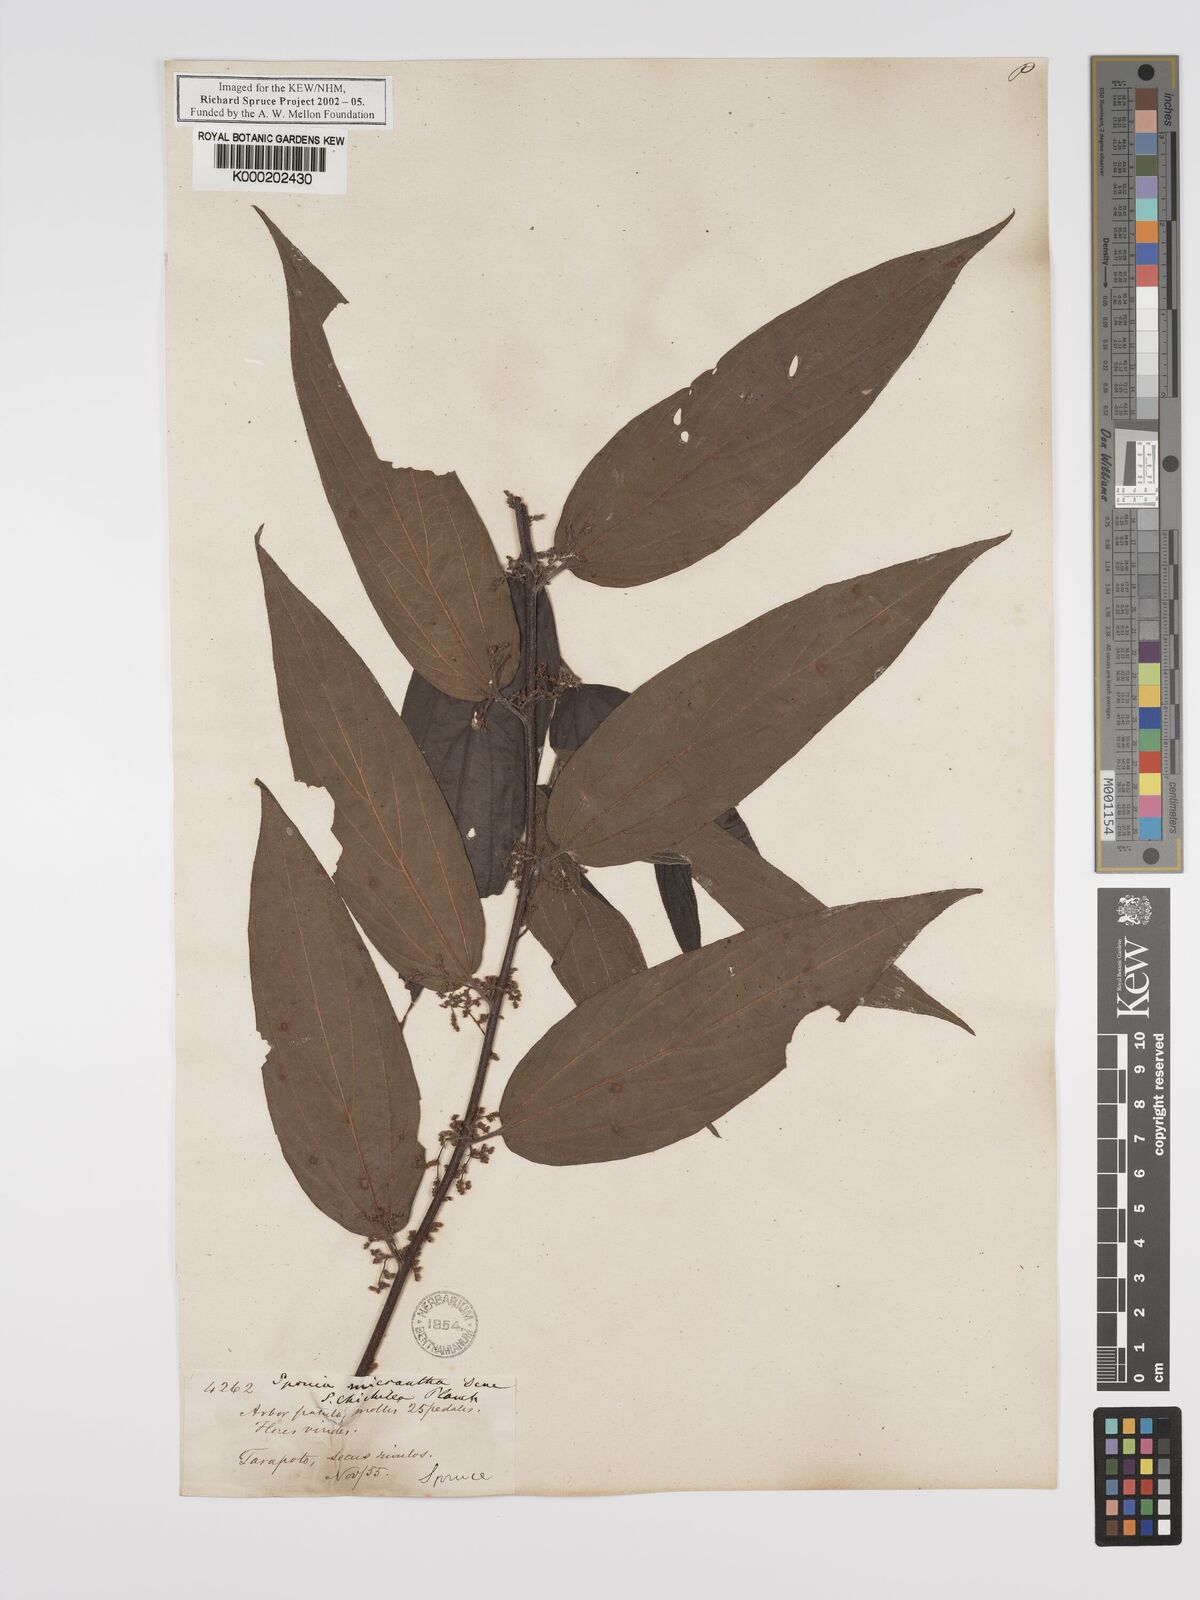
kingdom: Plantae
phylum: Tracheophyta
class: Magnoliopsida
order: Rosales
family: Cannabaceae
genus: Trema
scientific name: Trema
